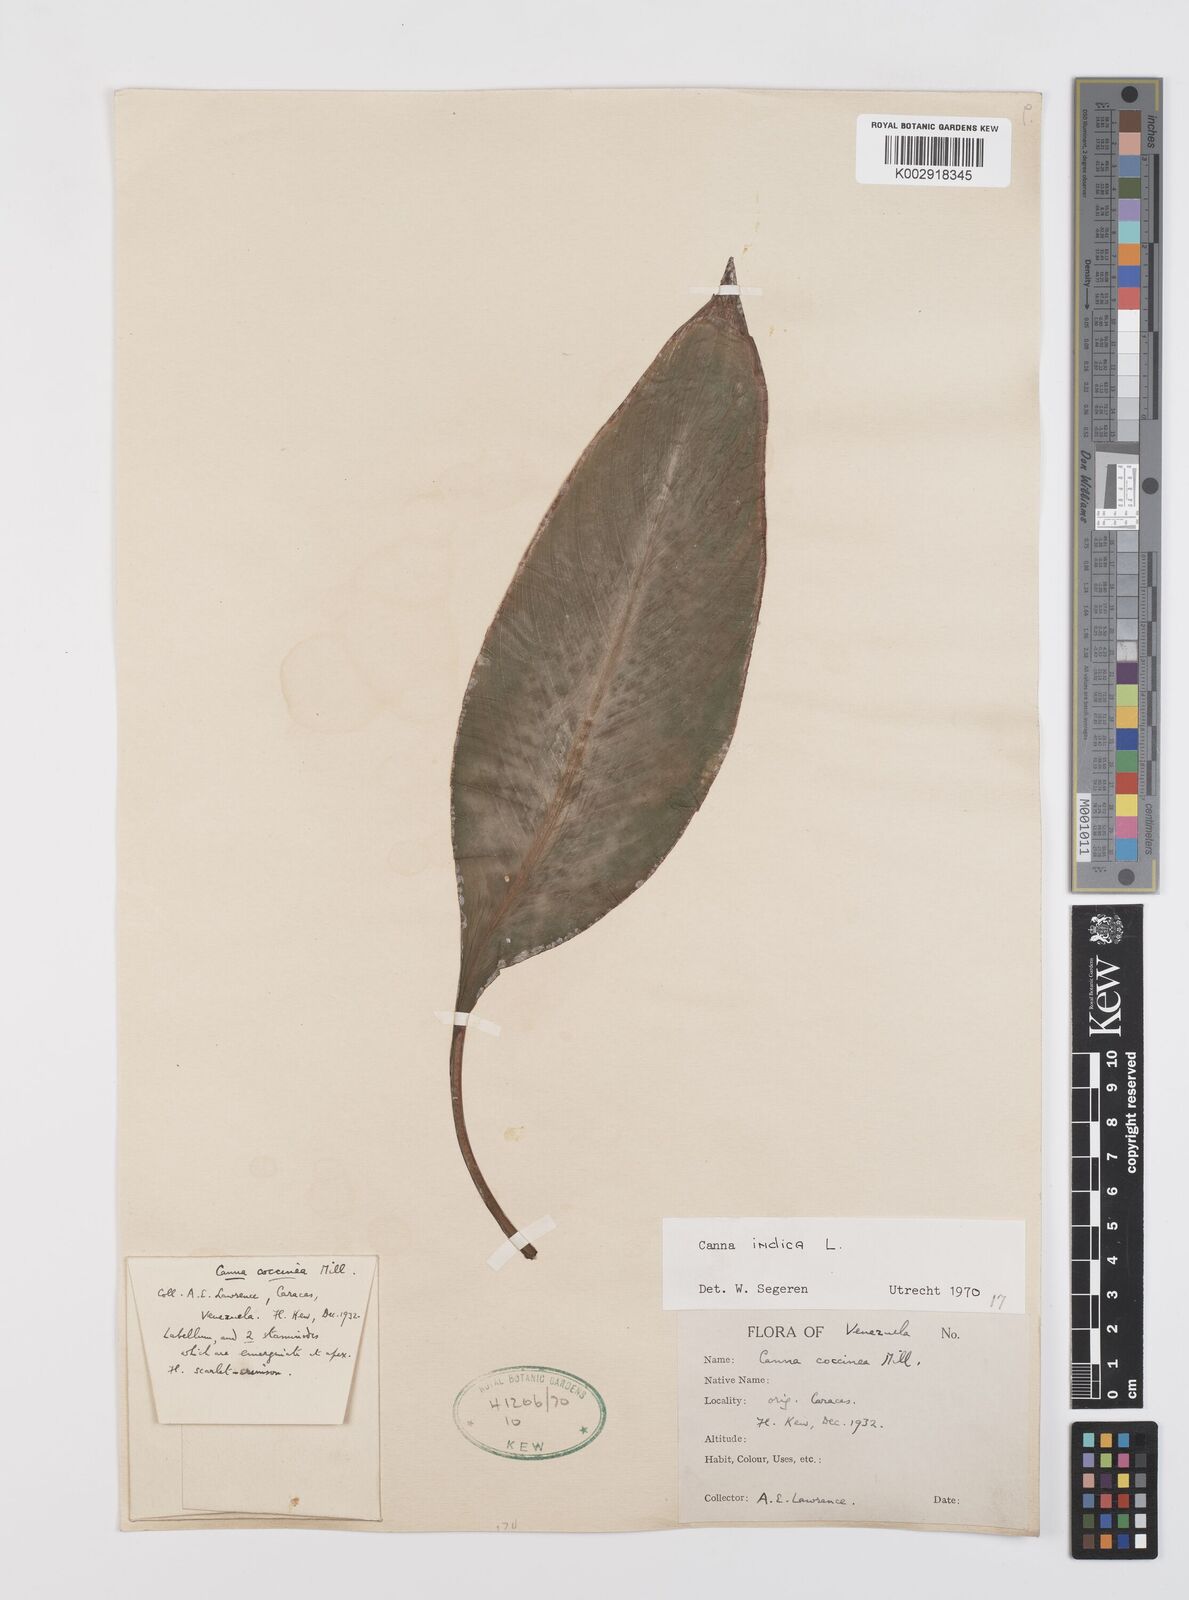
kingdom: Plantae
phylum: Tracheophyta
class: Liliopsida
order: Zingiberales
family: Cannaceae
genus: Canna
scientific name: Canna indica
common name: Indian shot
